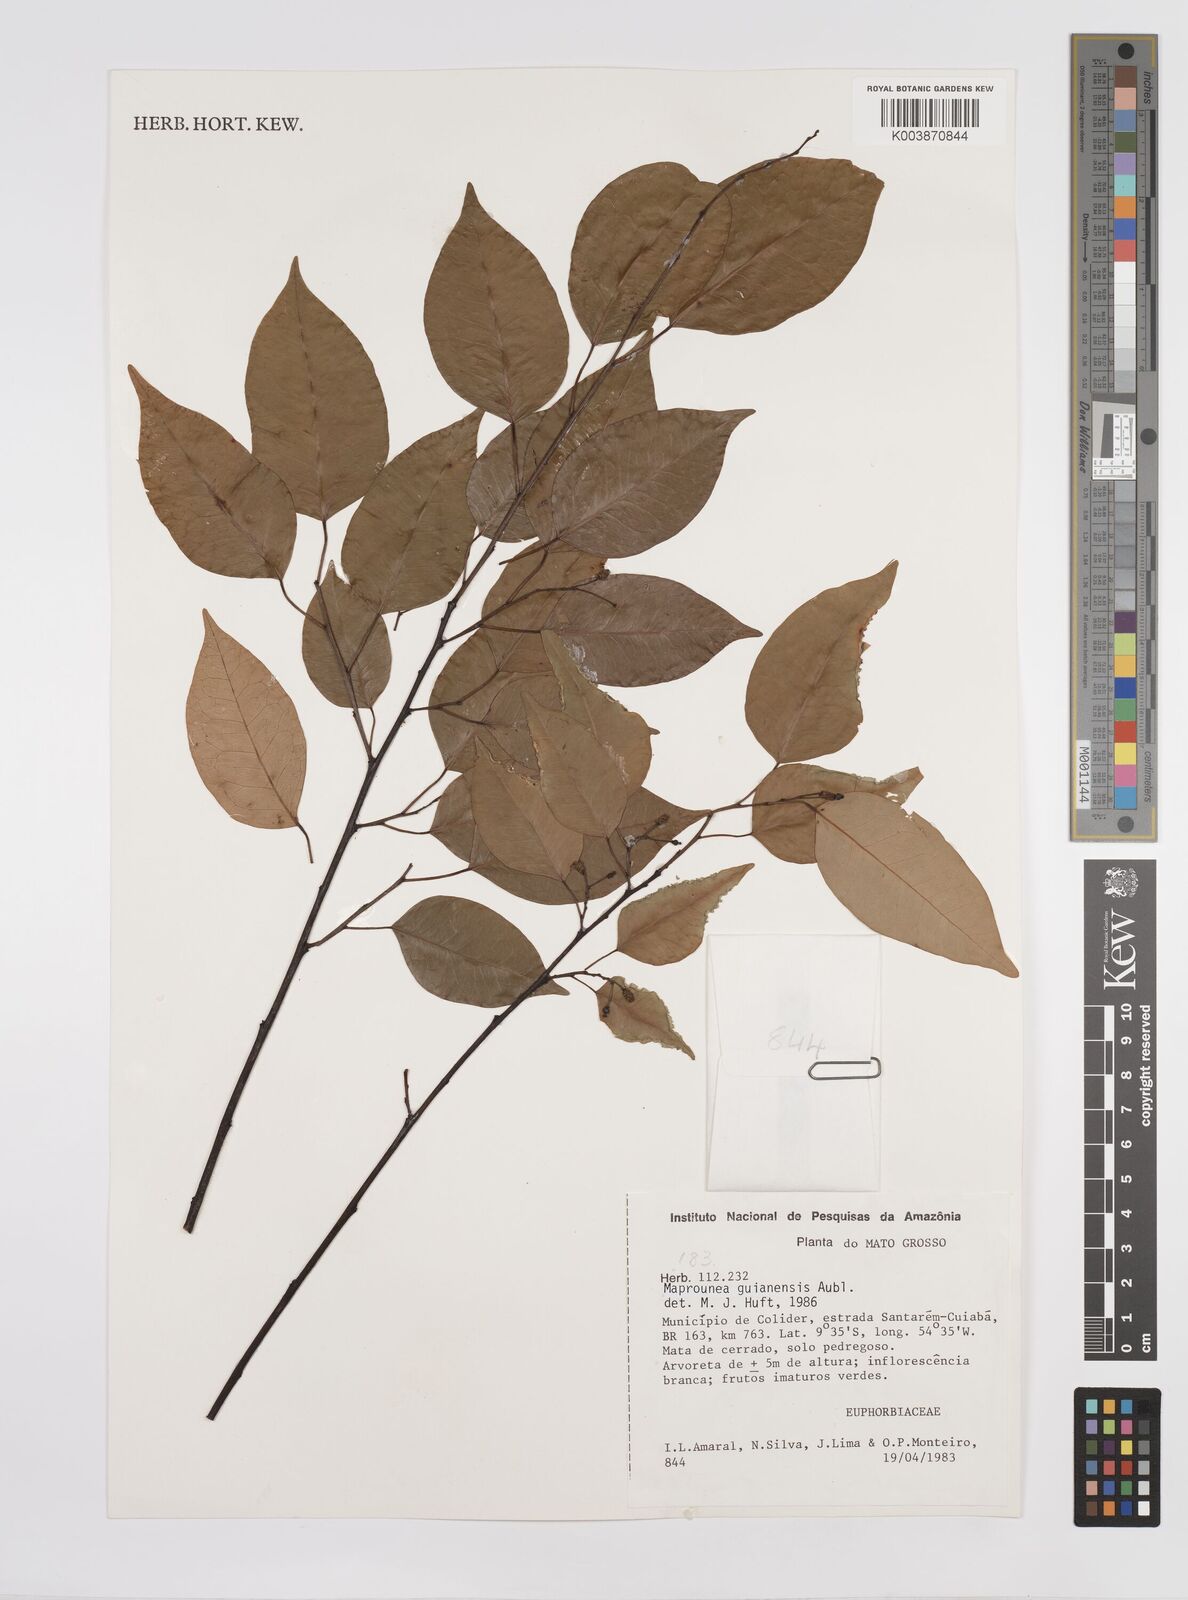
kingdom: Plantae
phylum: Tracheophyta
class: Magnoliopsida
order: Malpighiales
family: Euphorbiaceae
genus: Maprounea
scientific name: Maprounea guianensis
